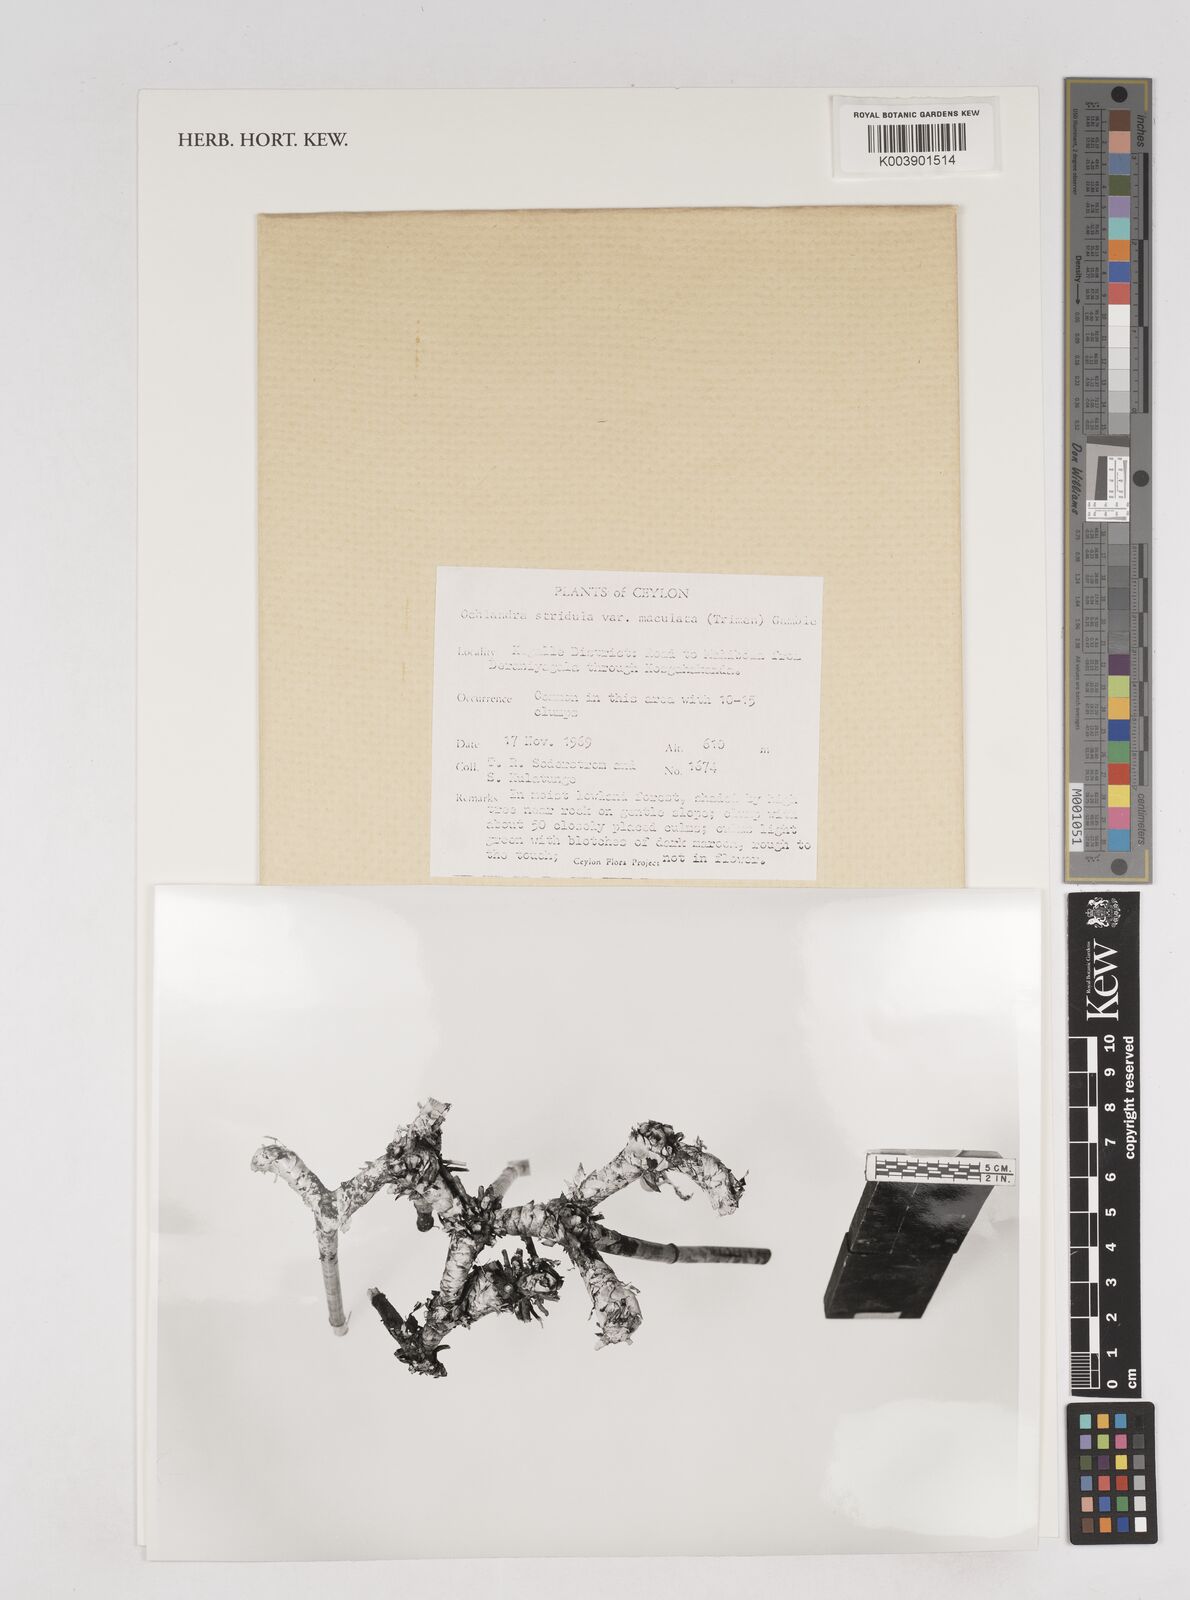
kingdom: Plantae
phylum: Tracheophyta
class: Liliopsida
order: Poales
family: Poaceae
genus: Ochlandra
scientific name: Ochlandra stridula
